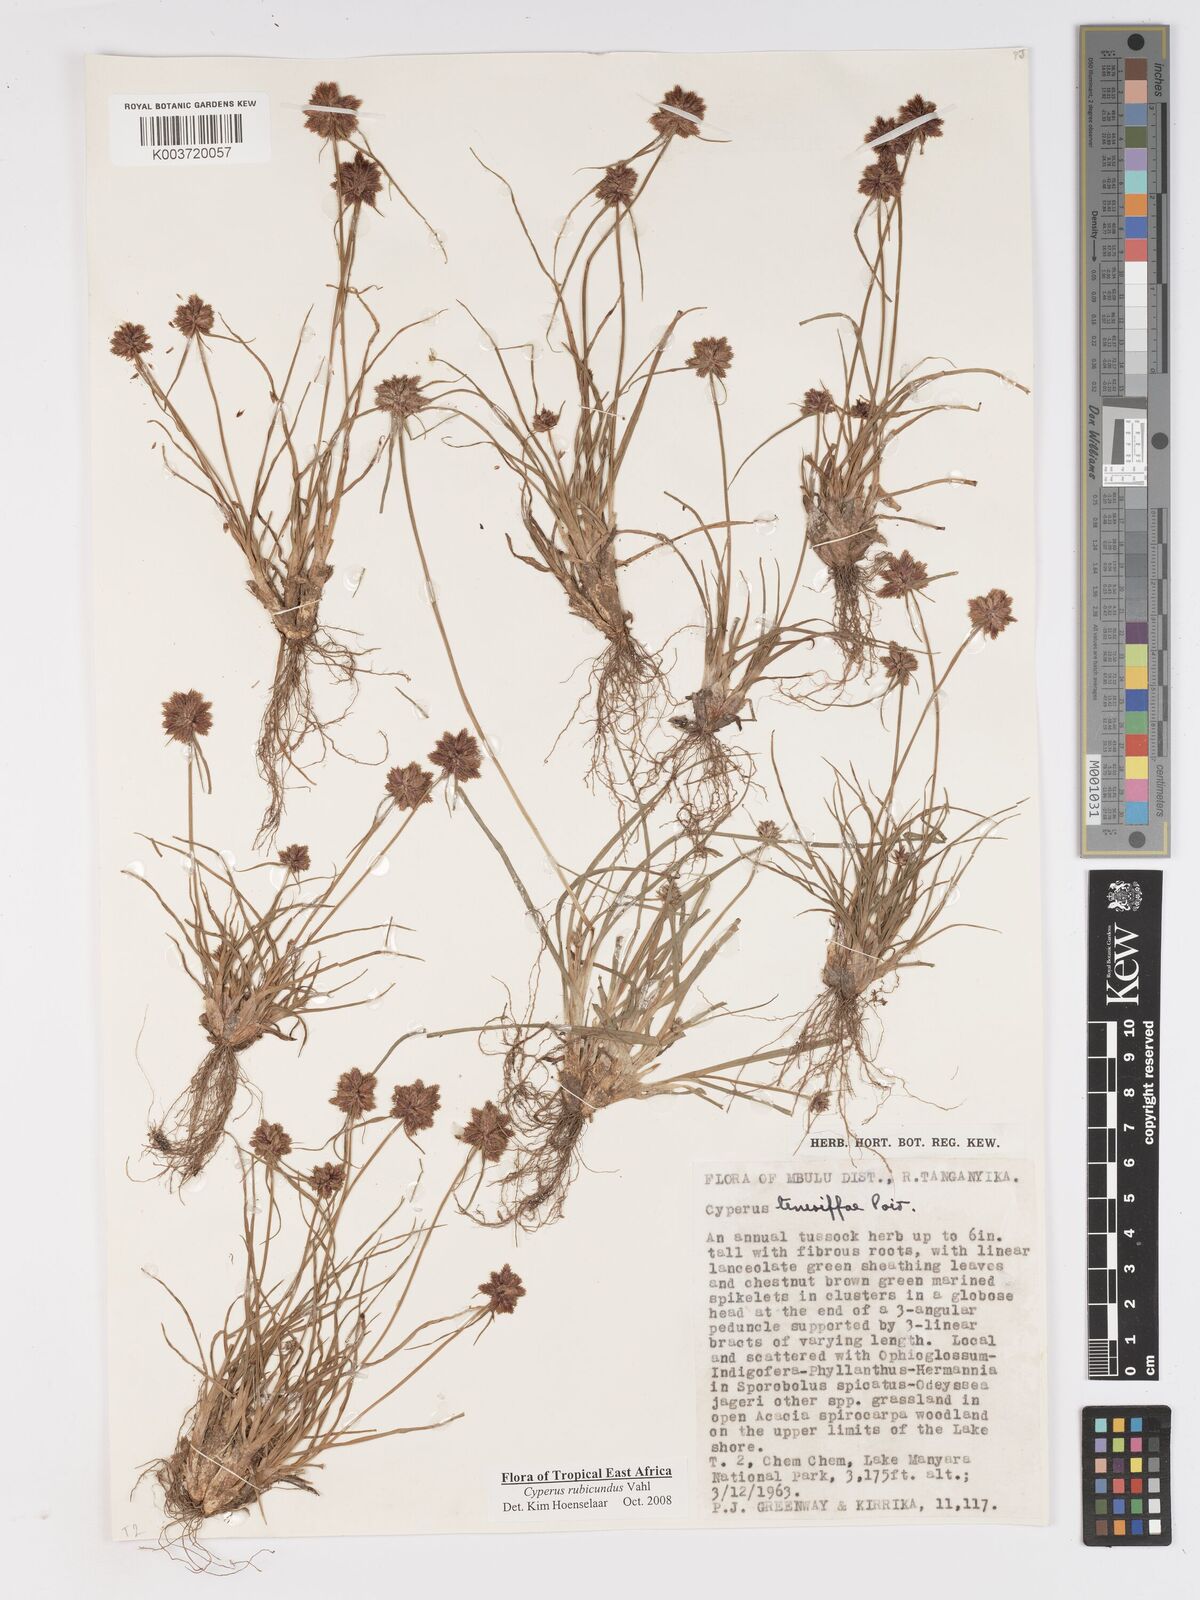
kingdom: Plantae
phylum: Tracheophyta
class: Liliopsida
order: Poales
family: Cyperaceae
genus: Cyperus
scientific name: Cyperus rubicundus
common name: Coco-grass
